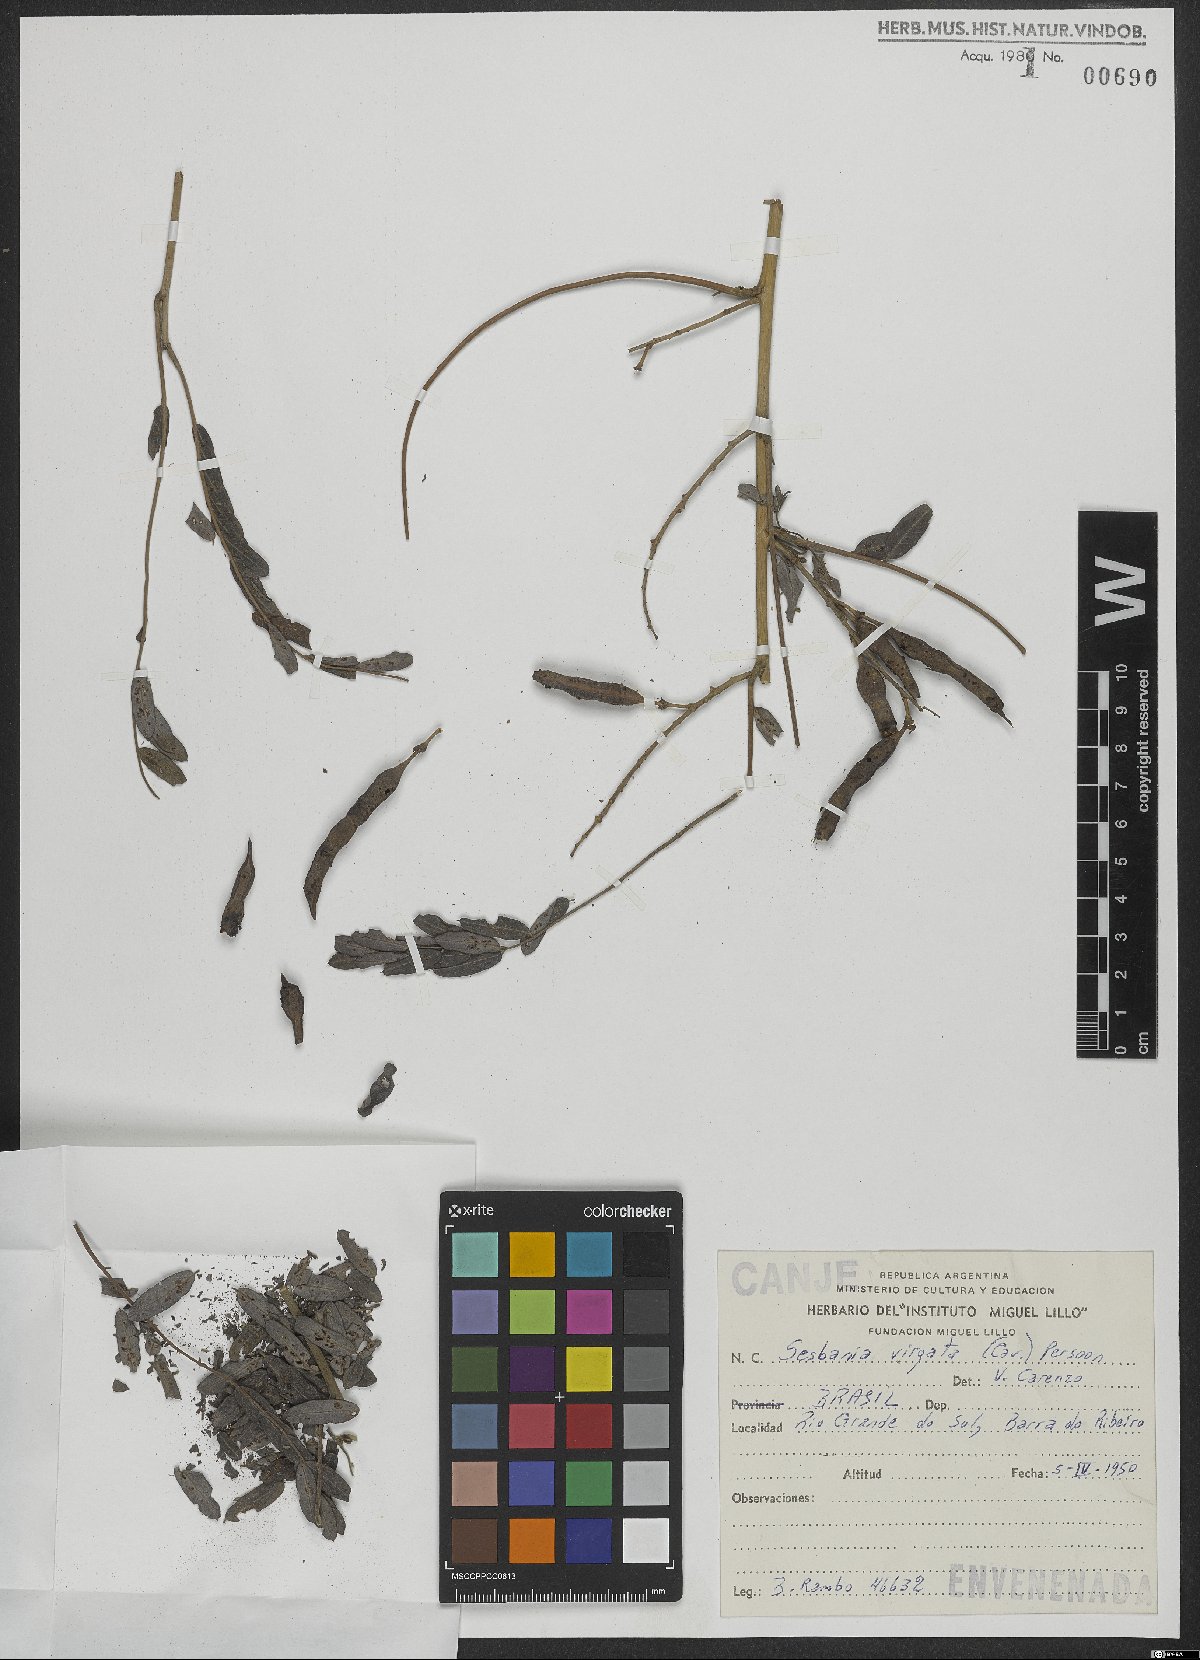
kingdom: Plantae
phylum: Tracheophyta
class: Magnoliopsida
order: Fabales
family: Fabaceae
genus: Sesbania
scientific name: Sesbania virgata
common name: Wand riverhemp
